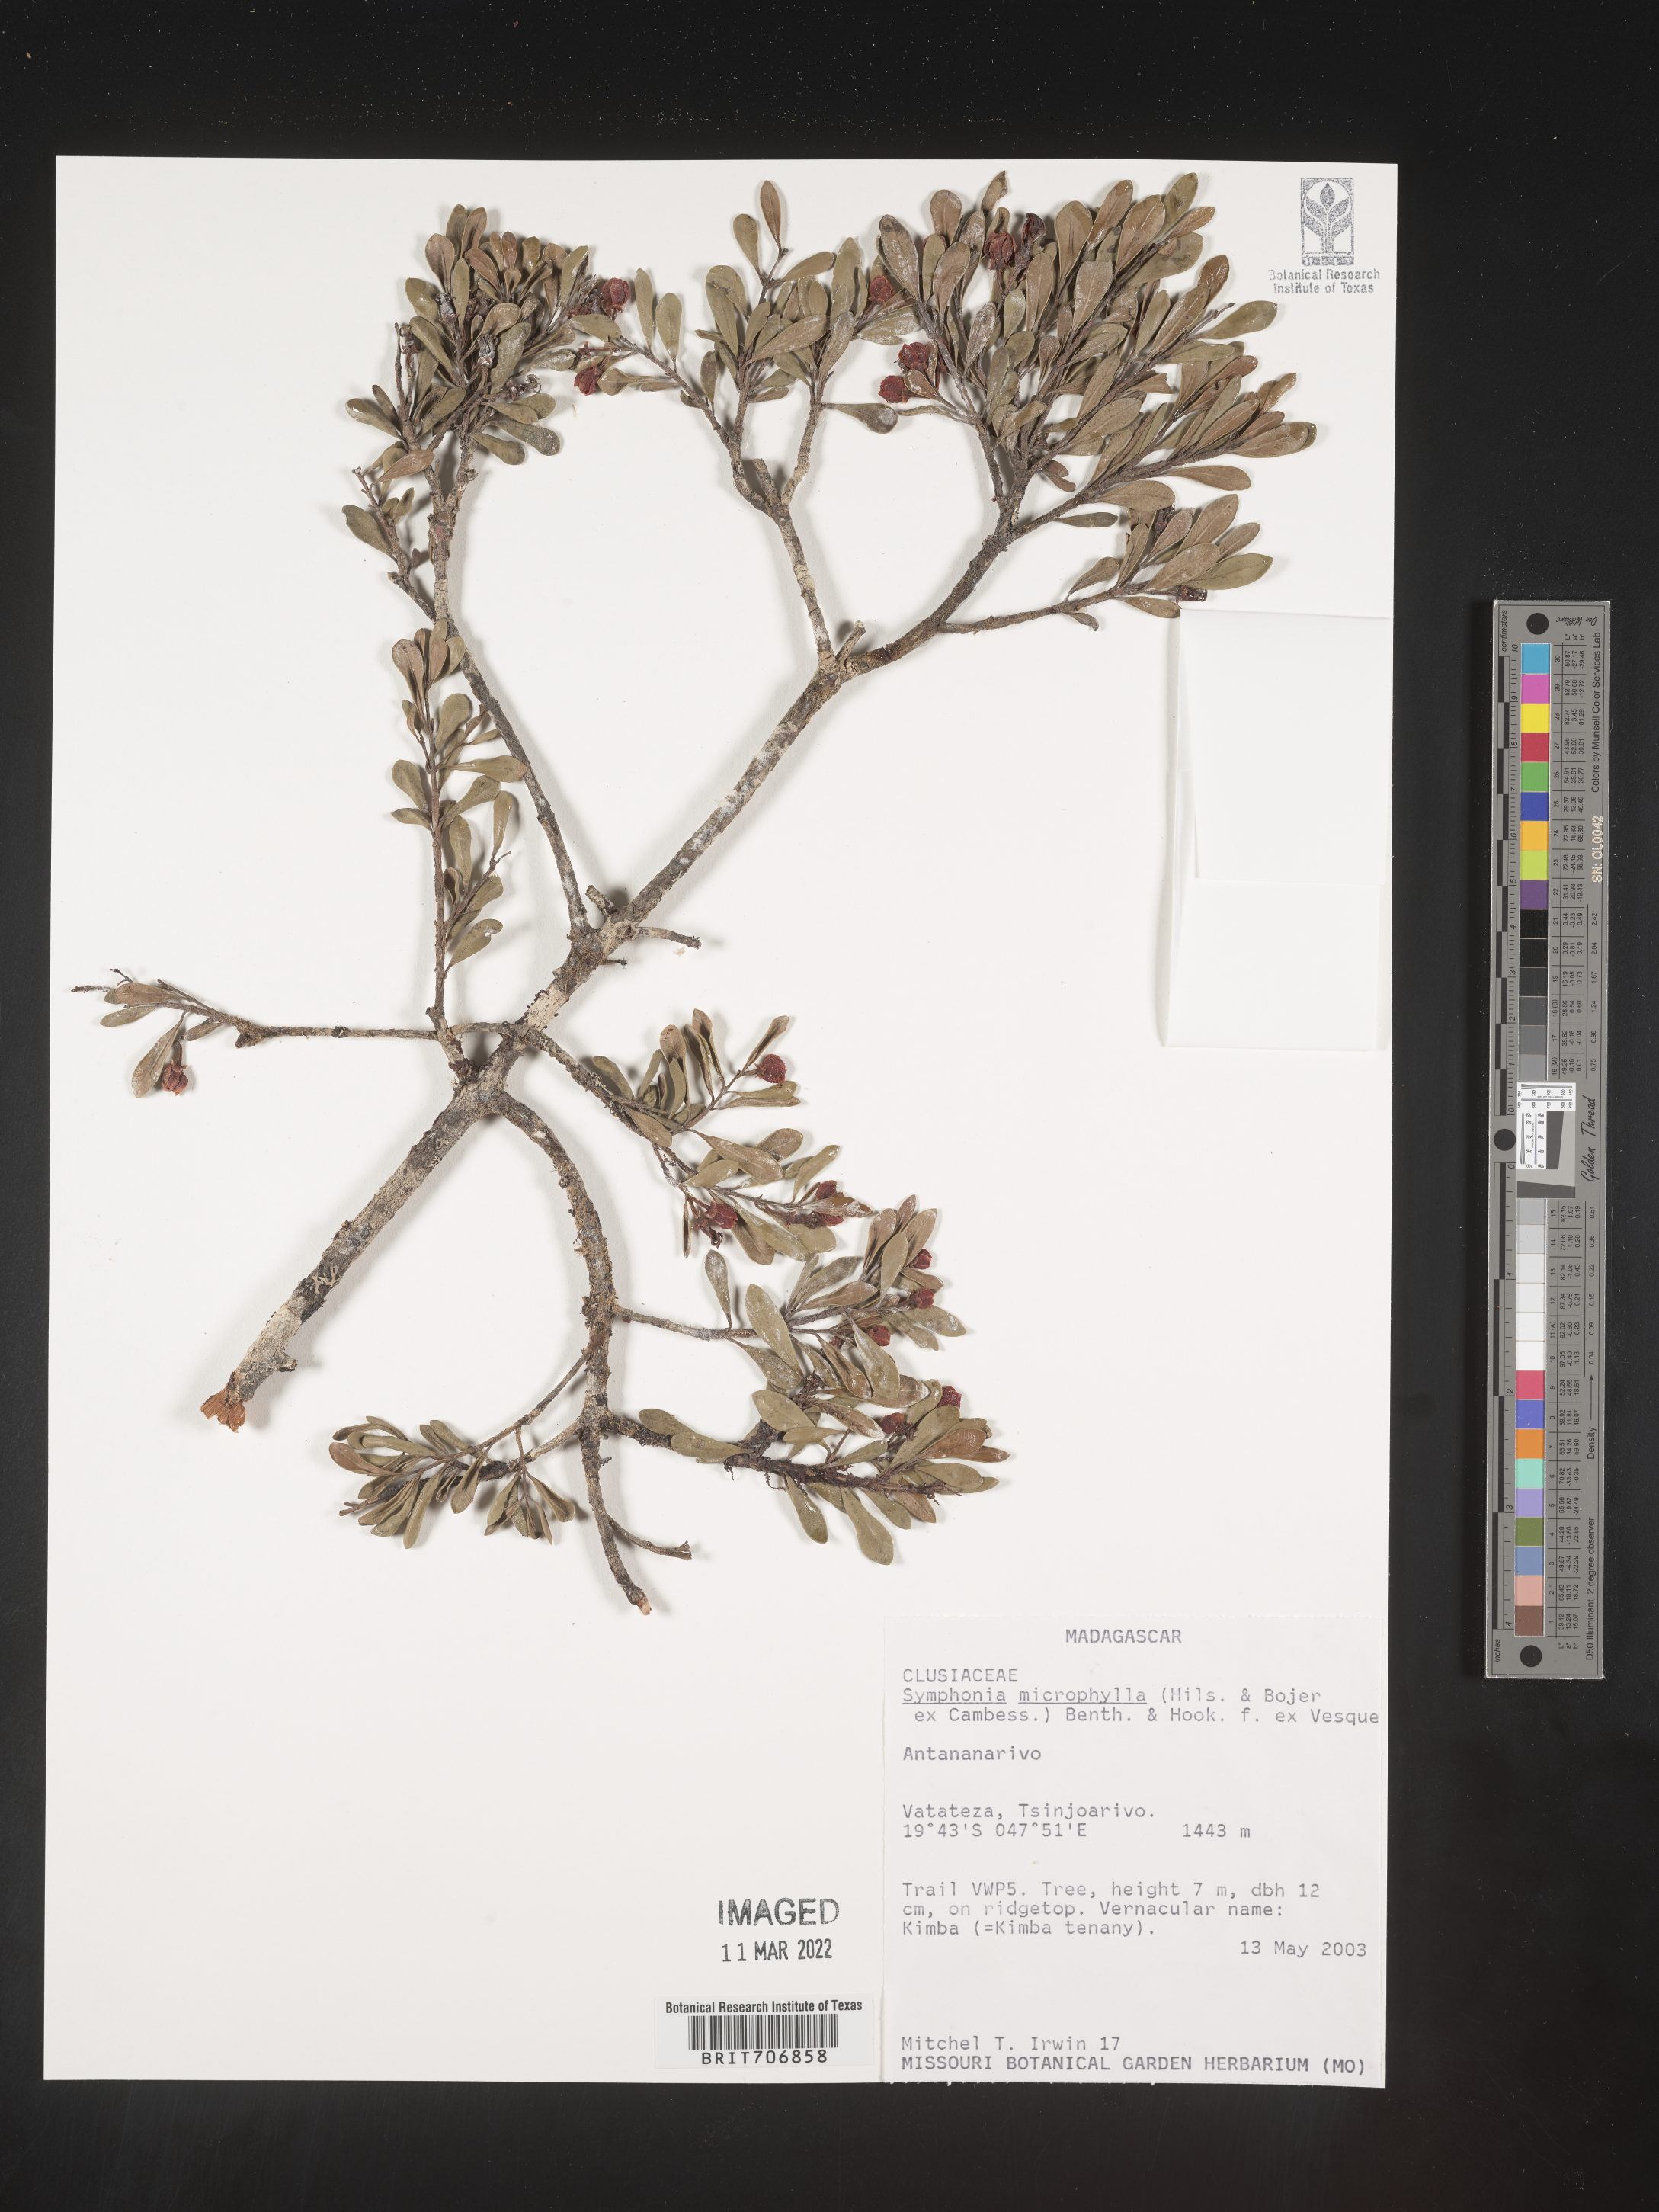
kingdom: Plantae
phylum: Tracheophyta
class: Magnoliopsida
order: Malpighiales
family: Clusiaceae
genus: Symphonia
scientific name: Symphonia
